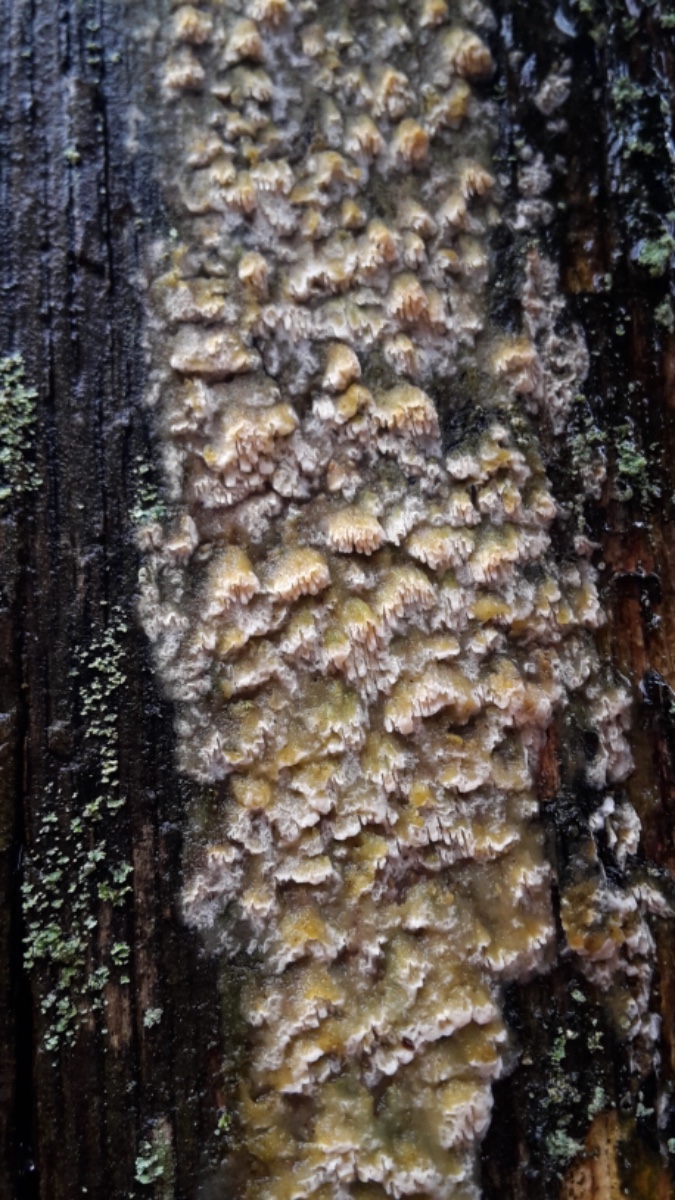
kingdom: Fungi
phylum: Basidiomycota
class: Agaricomycetes
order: Hymenochaetales
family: Schizoporaceae
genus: Schizopora
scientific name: Schizopora paradoxa
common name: hvid tandsvamp
